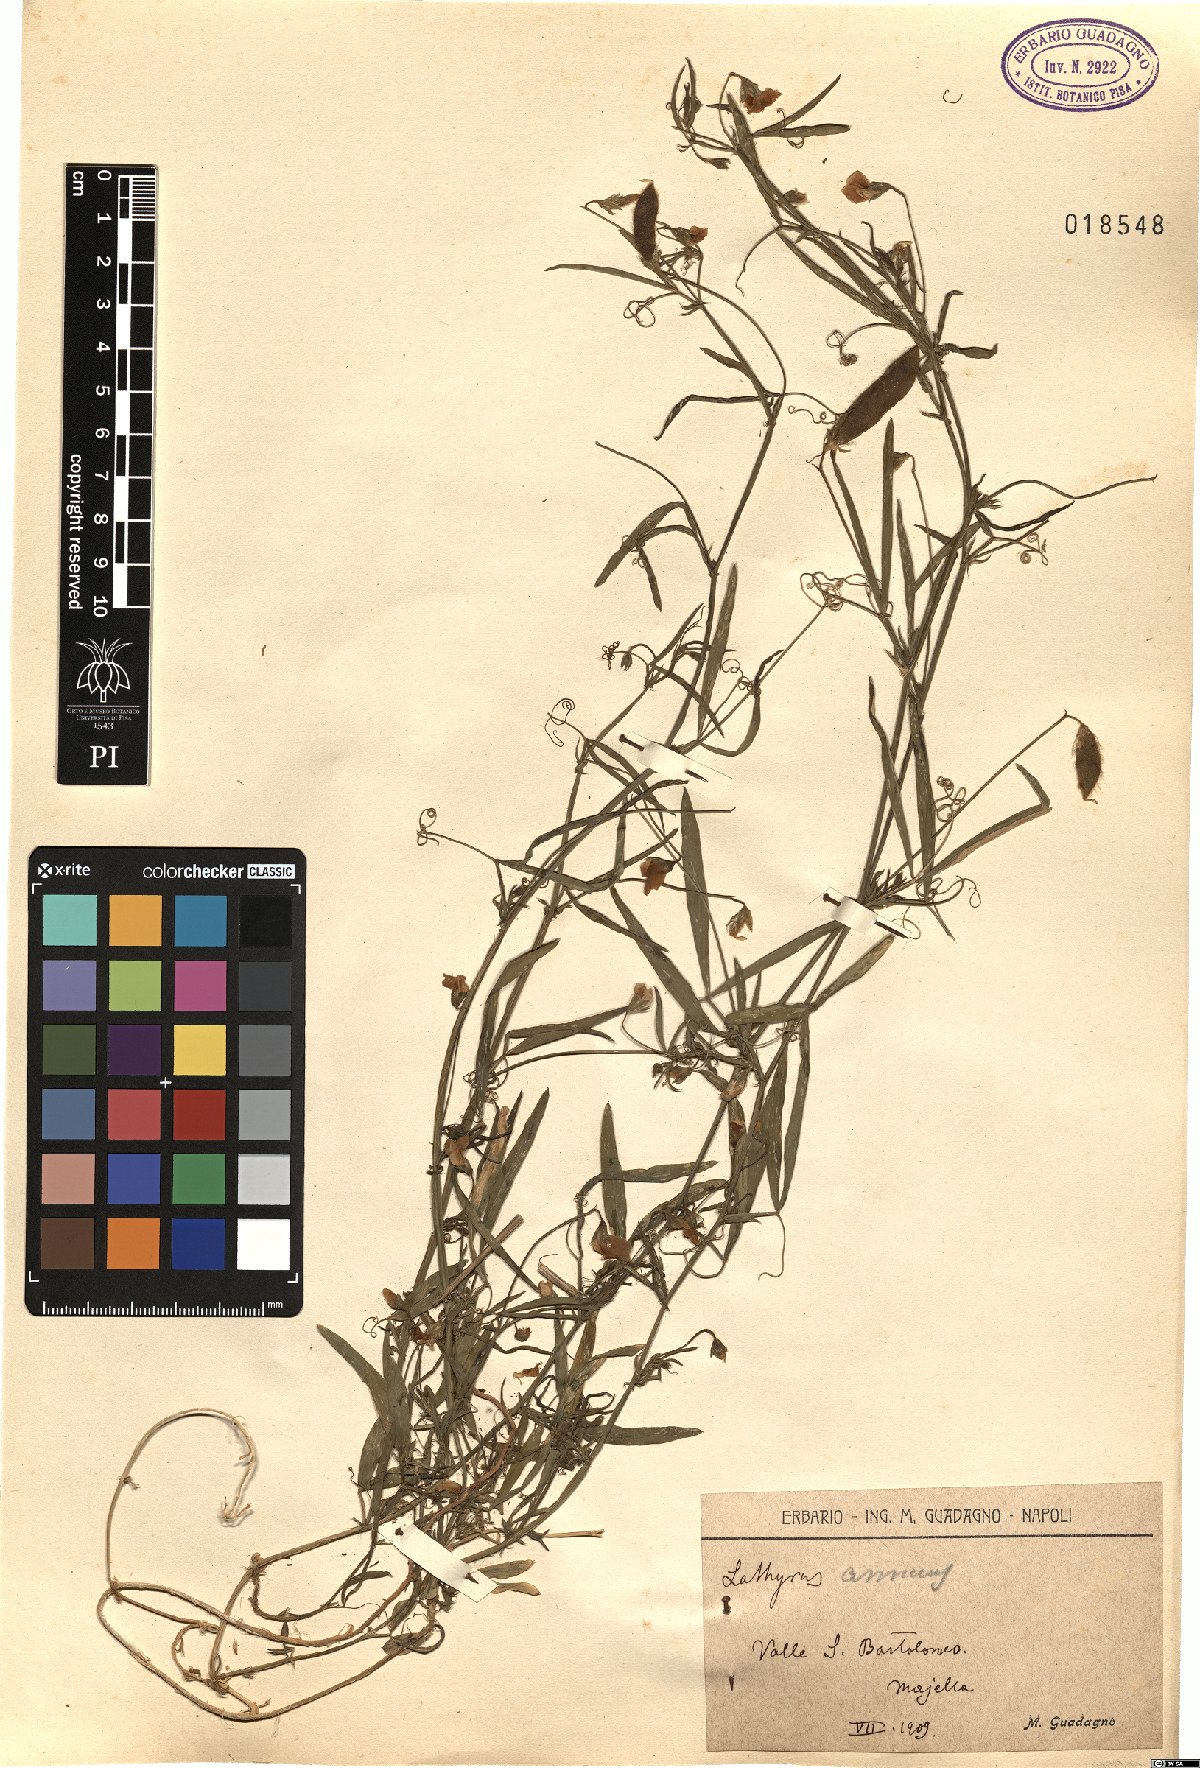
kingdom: Plantae
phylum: Tracheophyta
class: Magnoliopsida
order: Fabales
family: Fabaceae
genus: Lathyrus
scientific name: Lathyrus annuus
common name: Fodder pea
